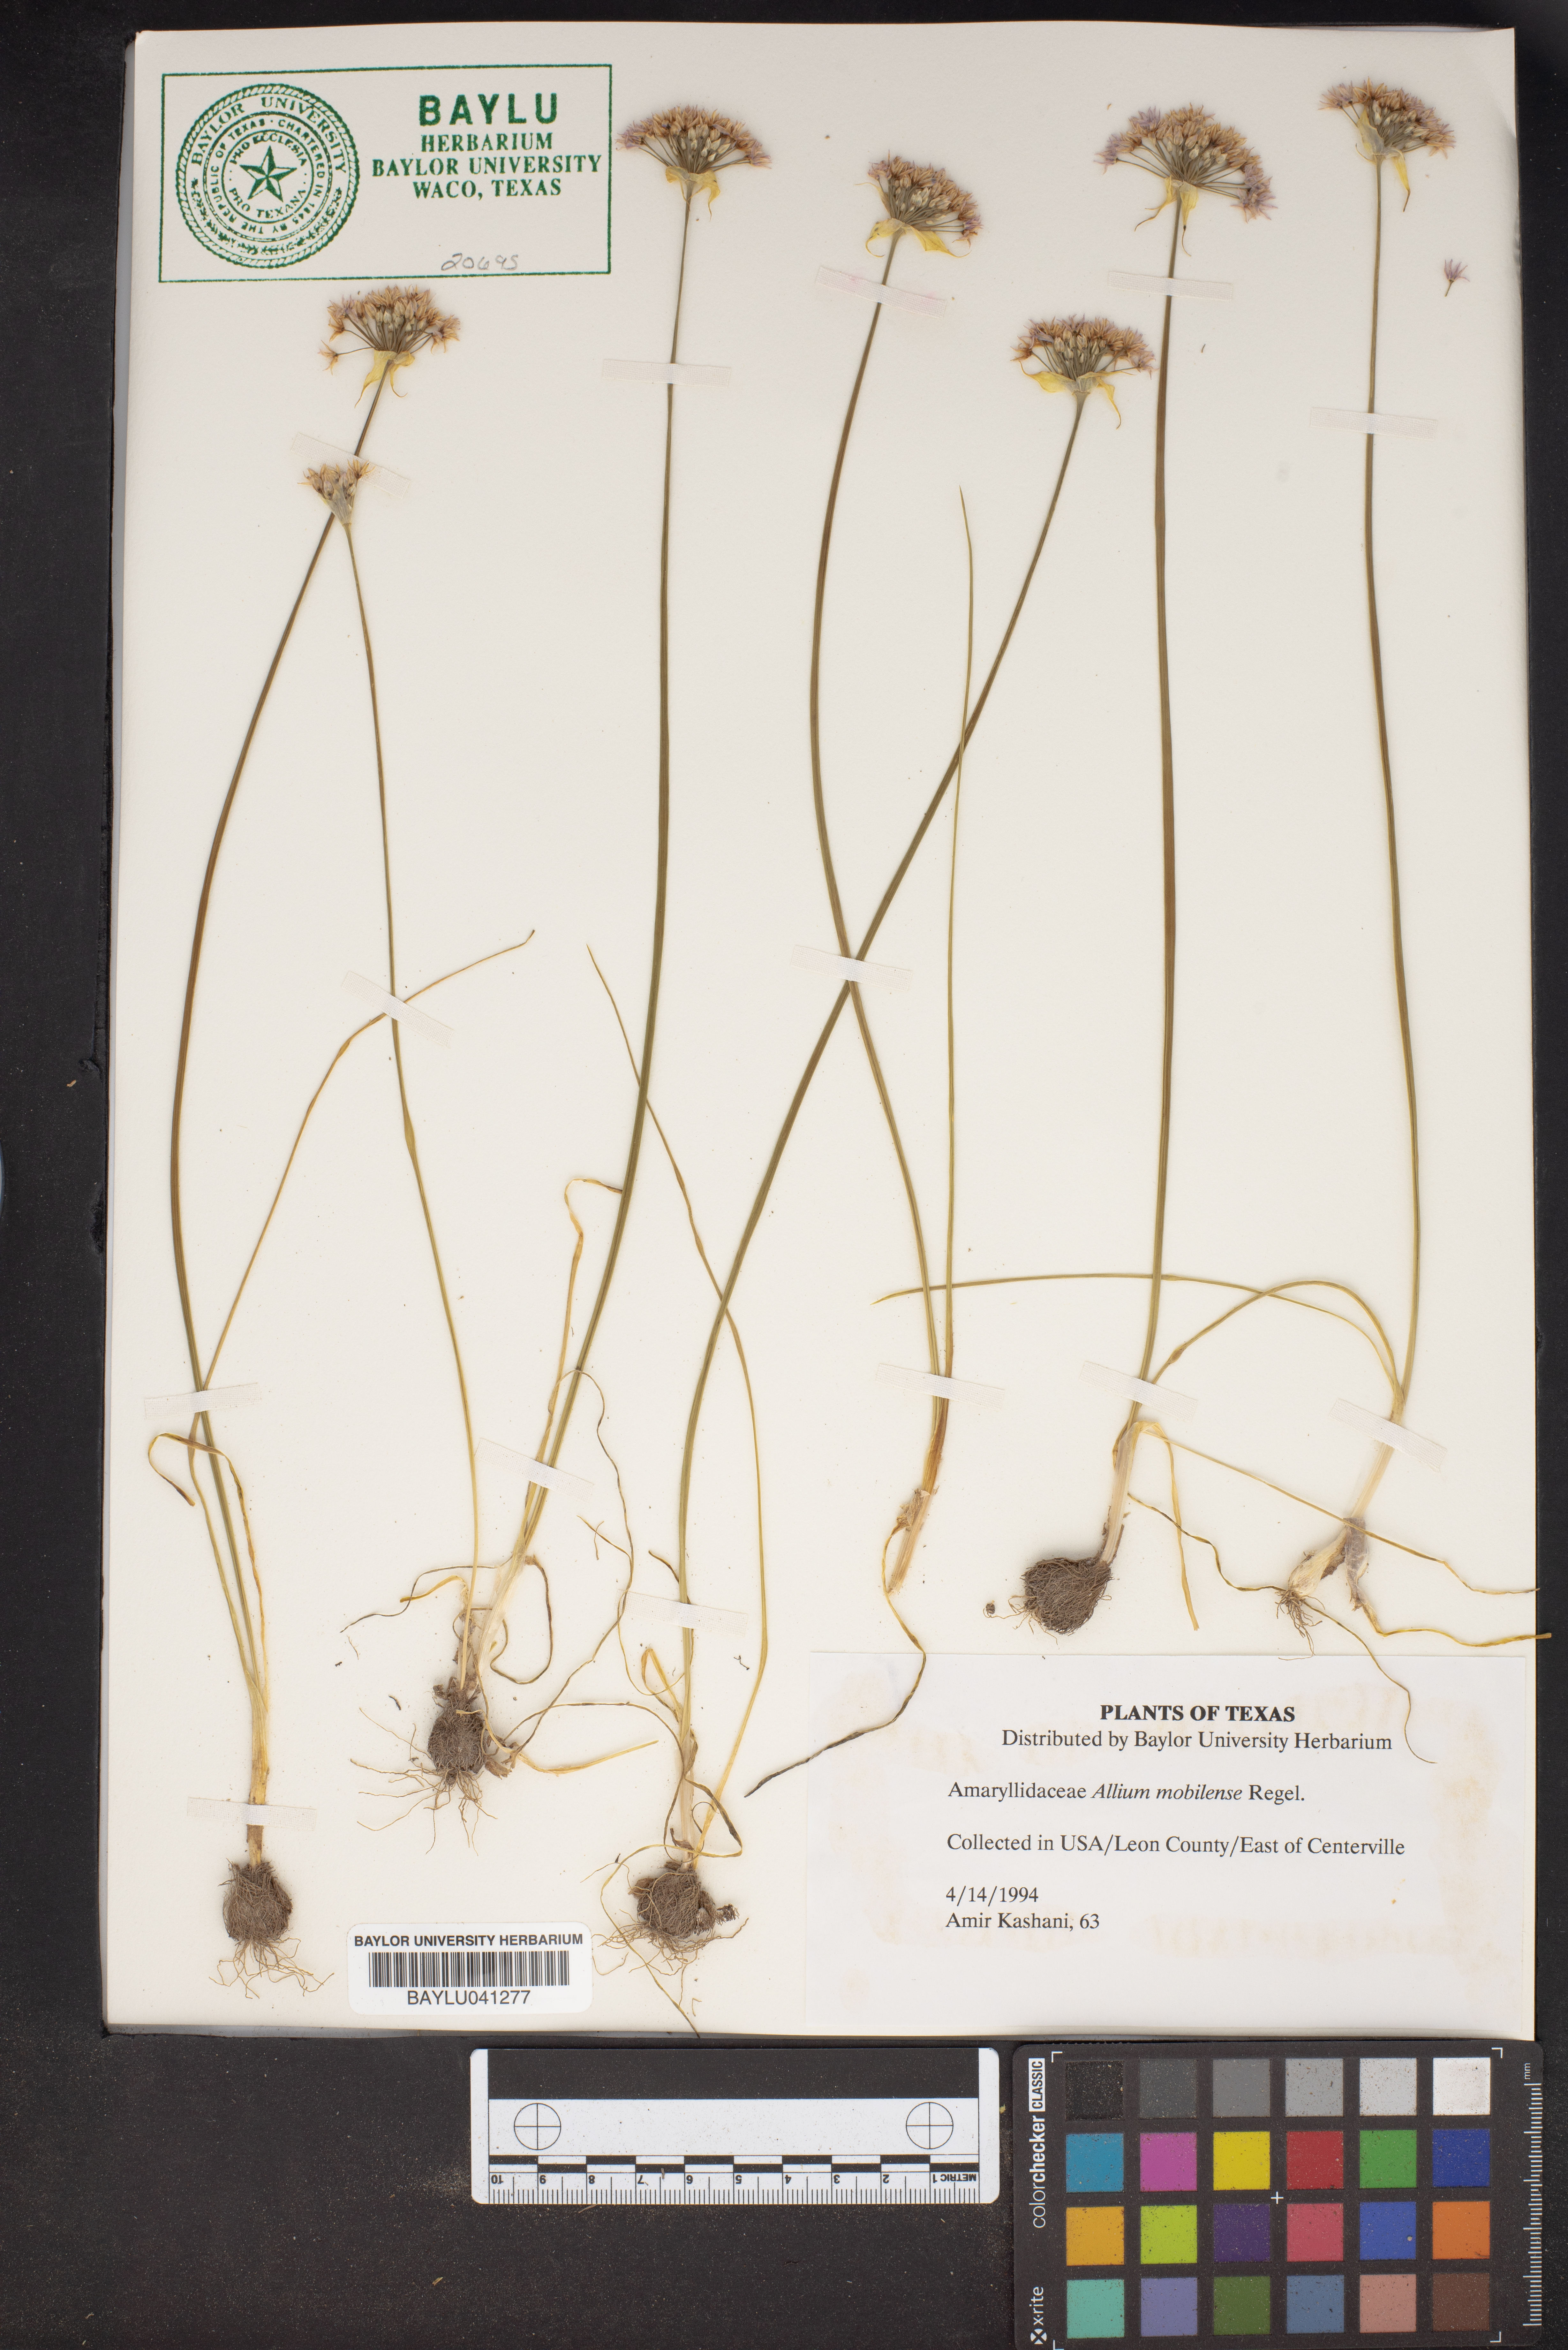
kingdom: Plantae
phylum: Tracheophyta
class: Liliopsida
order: Asparagales
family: Amaryllidaceae
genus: Allium
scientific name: Allium canadense
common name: Meadow garlic
